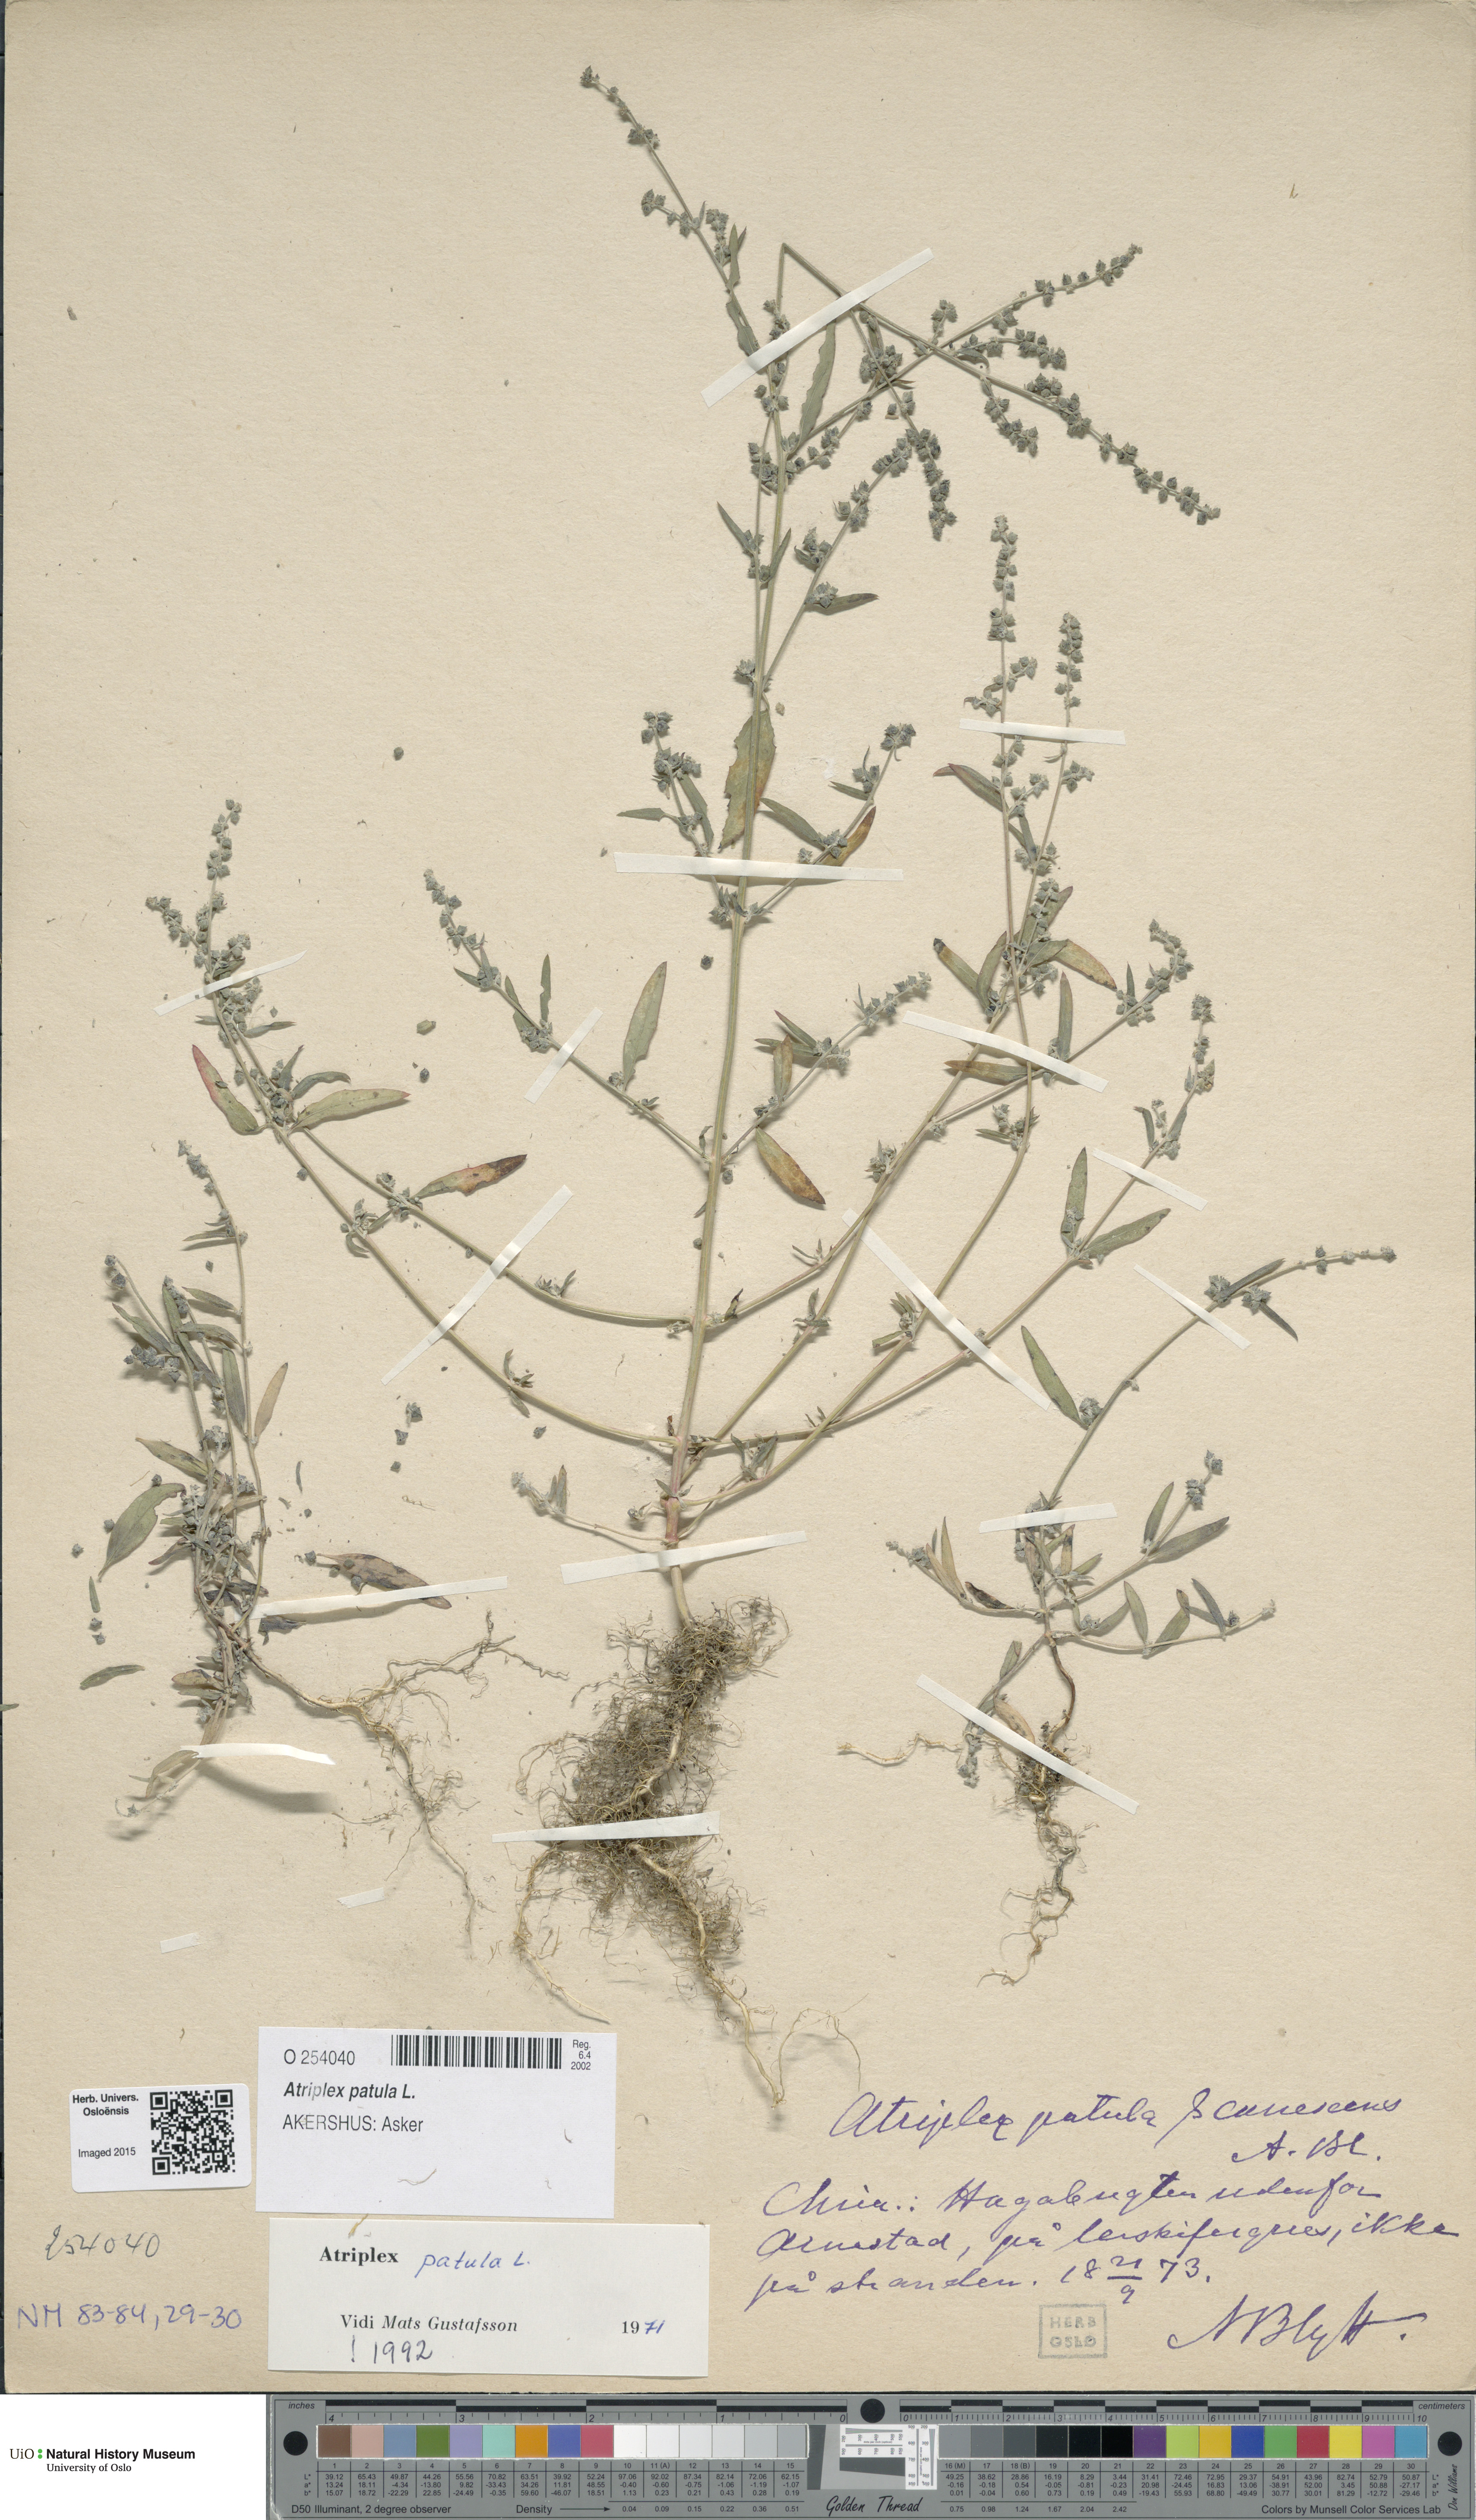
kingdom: Plantae
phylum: Tracheophyta
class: Magnoliopsida
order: Caryophyllales
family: Amaranthaceae
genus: Atriplex
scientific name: Atriplex patula
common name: Common orache
